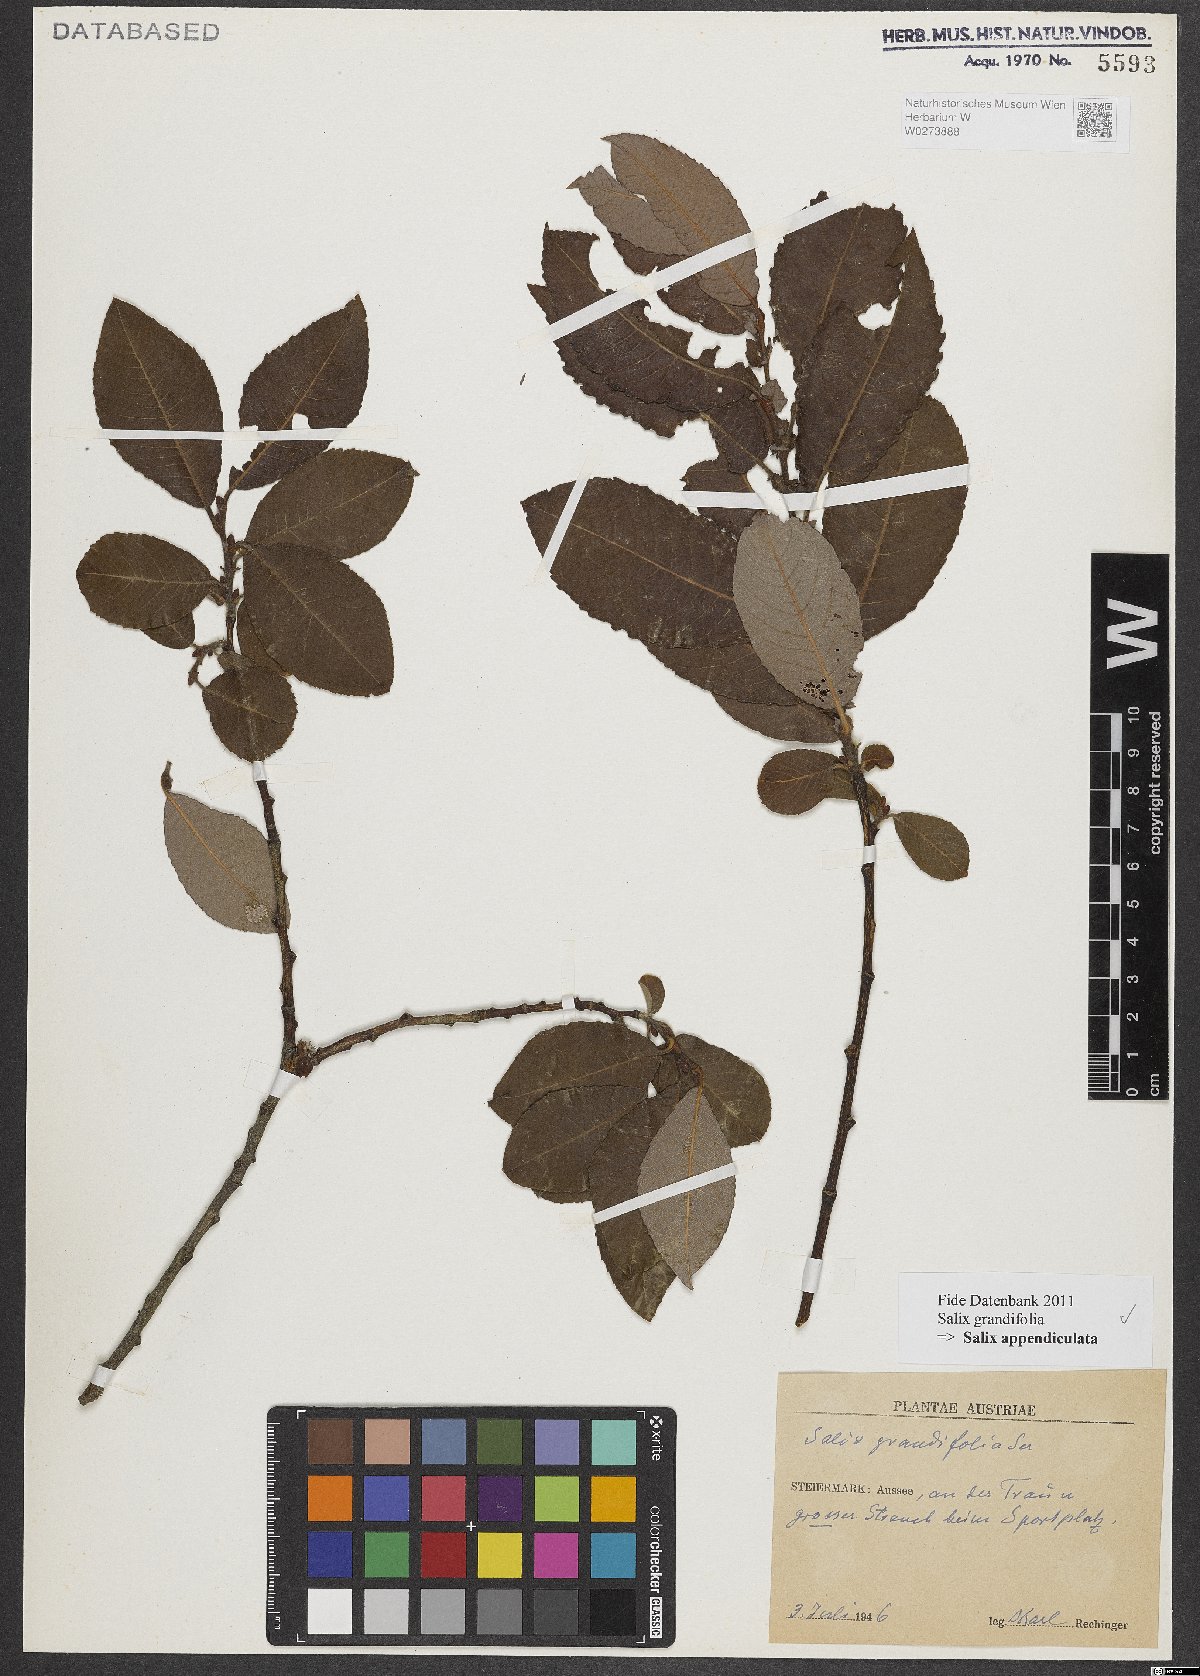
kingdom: Plantae
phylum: Tracheophyta
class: Magnoliopsida
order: Malpighiales
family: Salicaceae
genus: Salix
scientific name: Salix appendiculata
